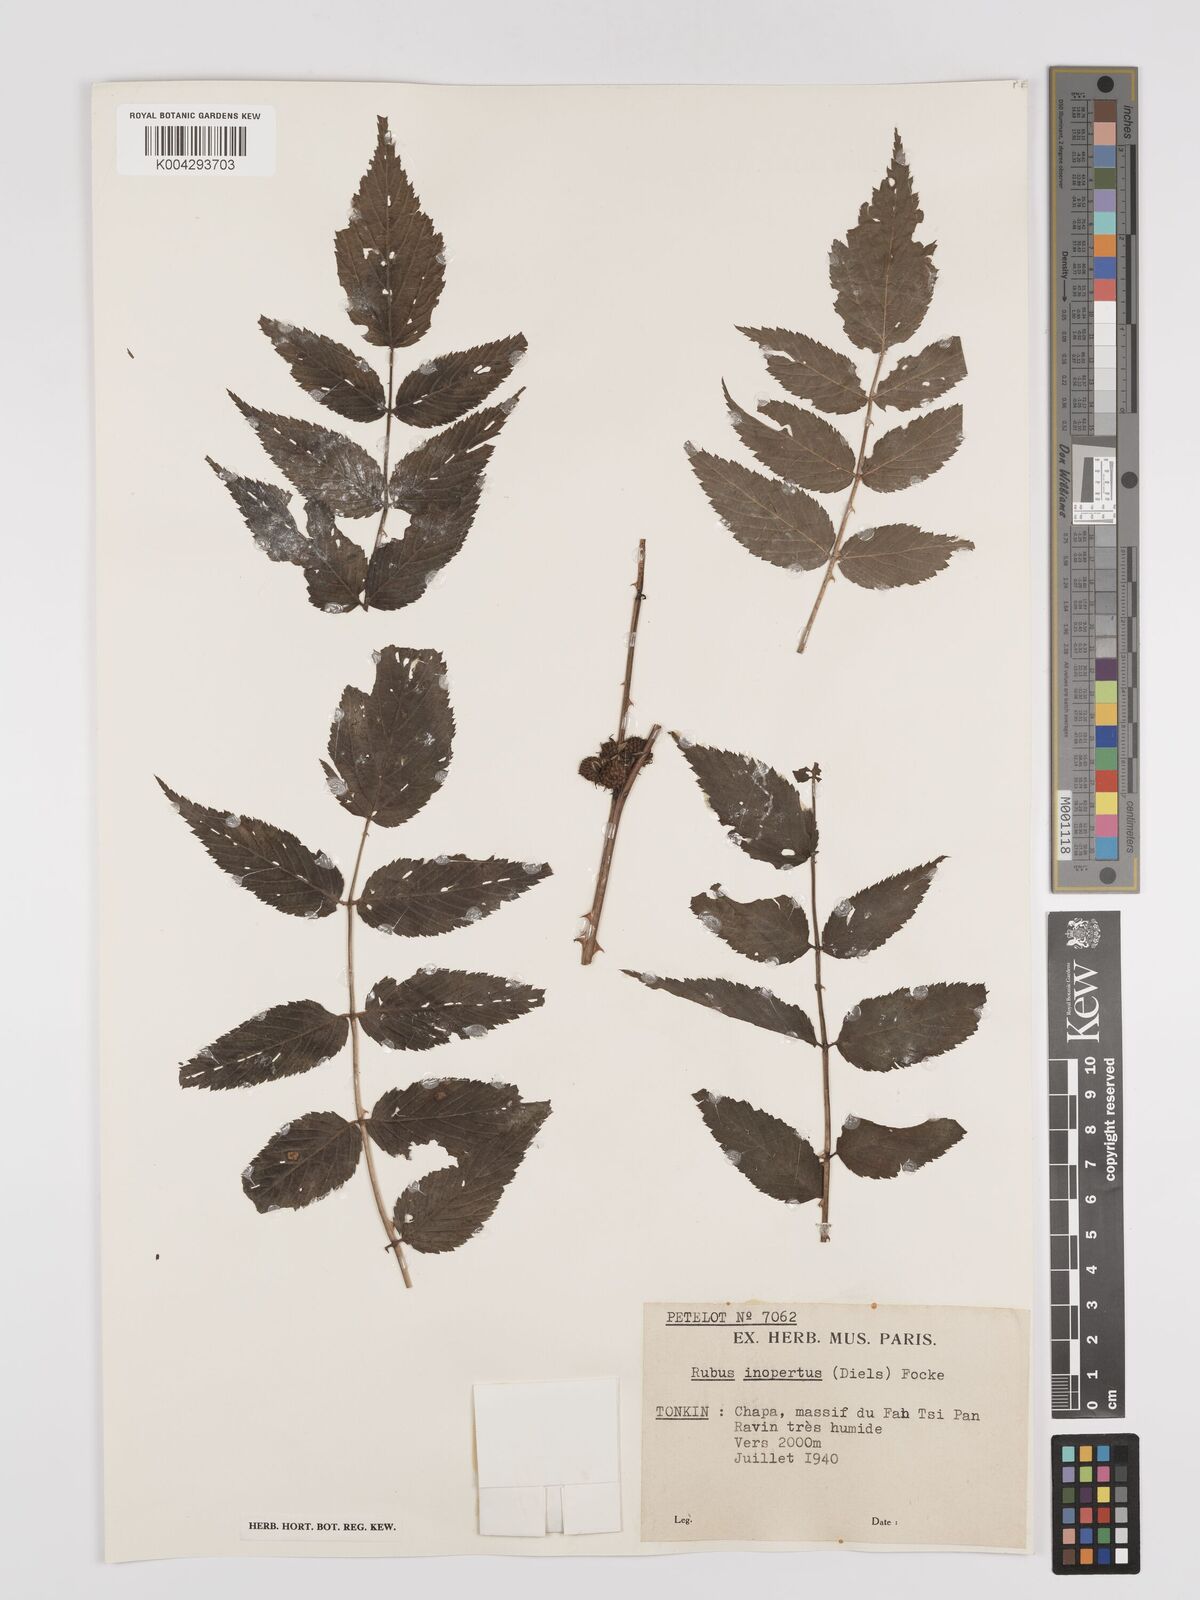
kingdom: Plantae
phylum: Tracheophyta
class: Magnoliopsida
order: Rosales
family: Rosaceae
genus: Rubus
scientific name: Rubus inopertus
